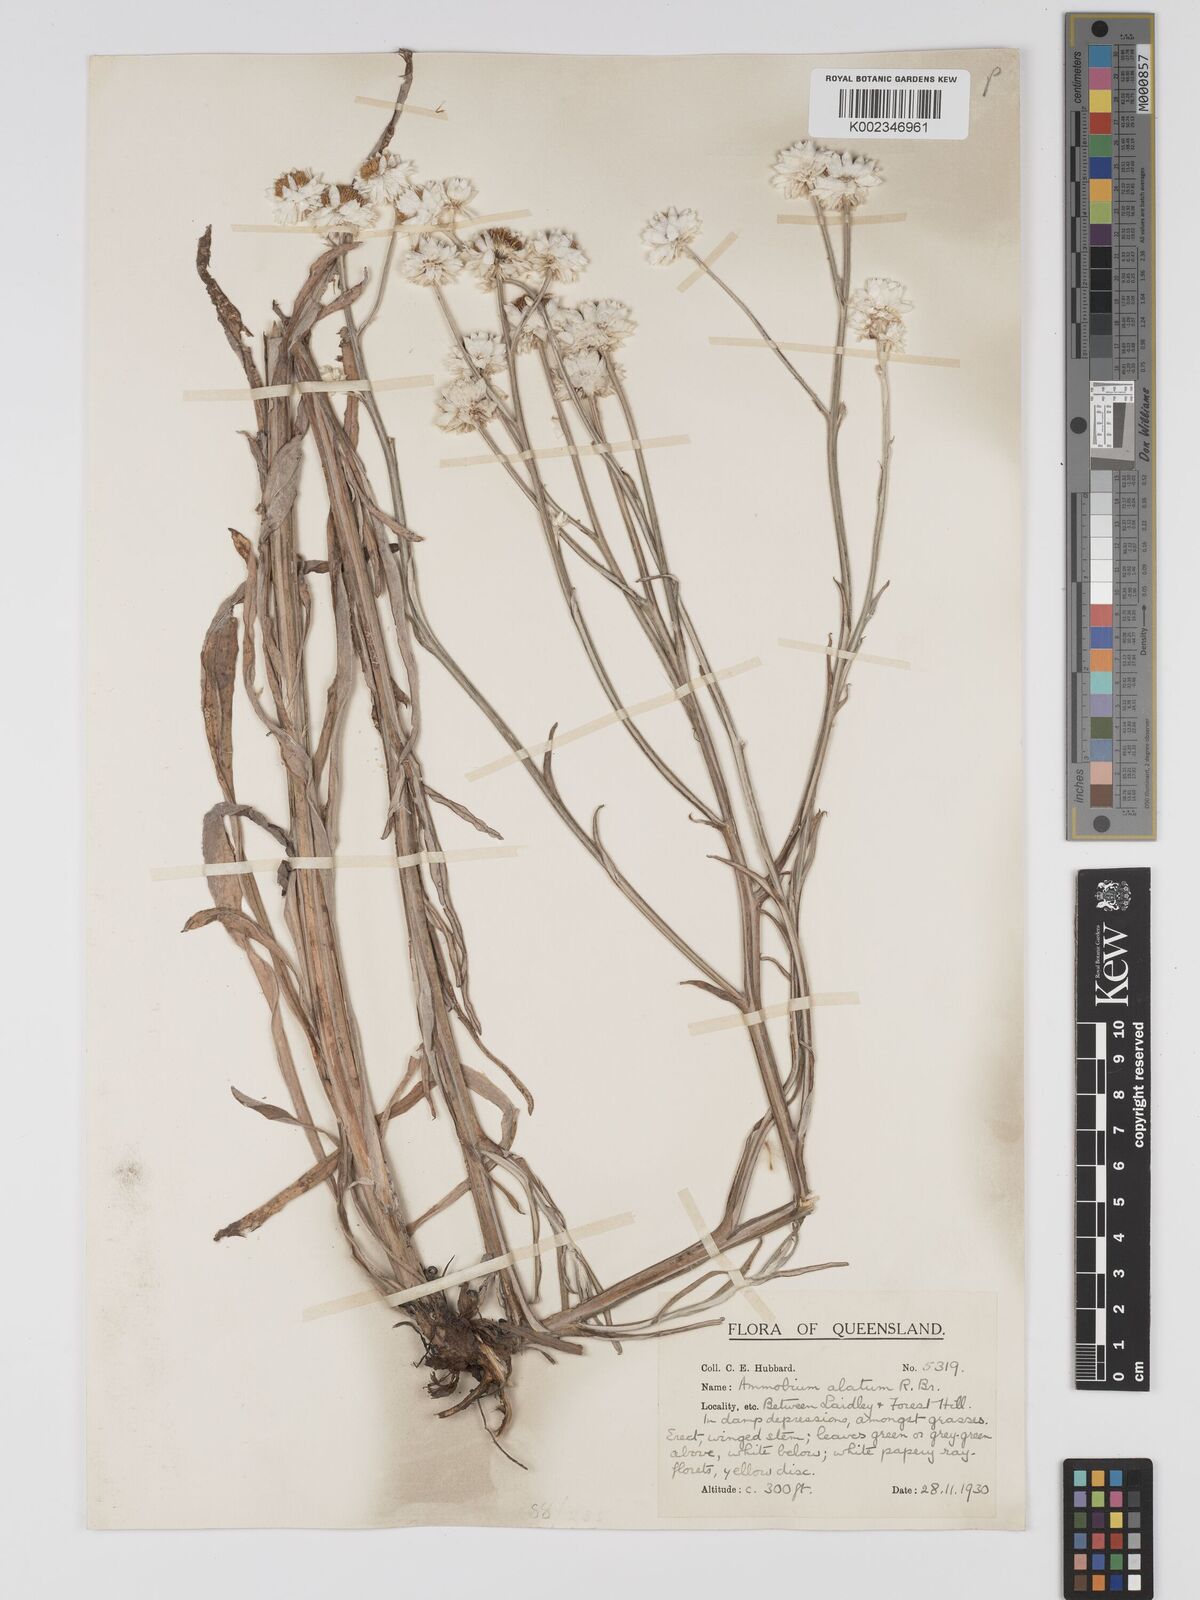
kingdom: Plantae
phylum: Tracheophyta
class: Magnoliopsida
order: Asterales
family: Asteraceae
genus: Ammobium
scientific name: Ammobium alatum
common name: Winged everlasting
